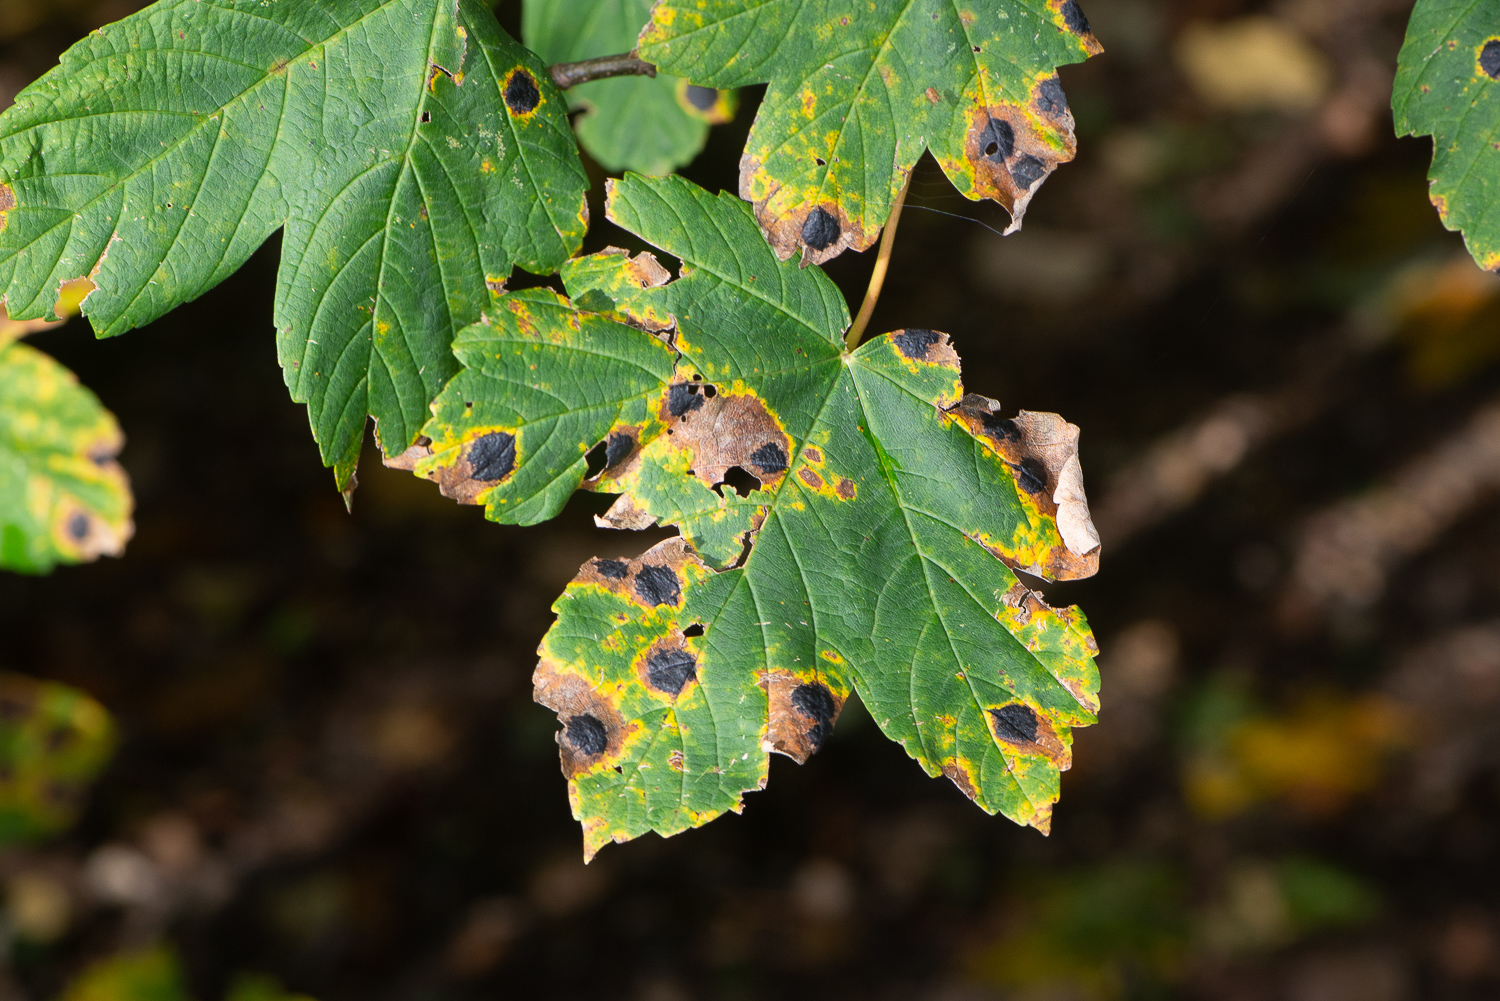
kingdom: Fungi
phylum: Ascomycota
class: Leotiomycetes
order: Rhytismatales
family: Rhytismataceae
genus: Rhytisma
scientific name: Rhytisma acerinum
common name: ahorn-rynkeplet
